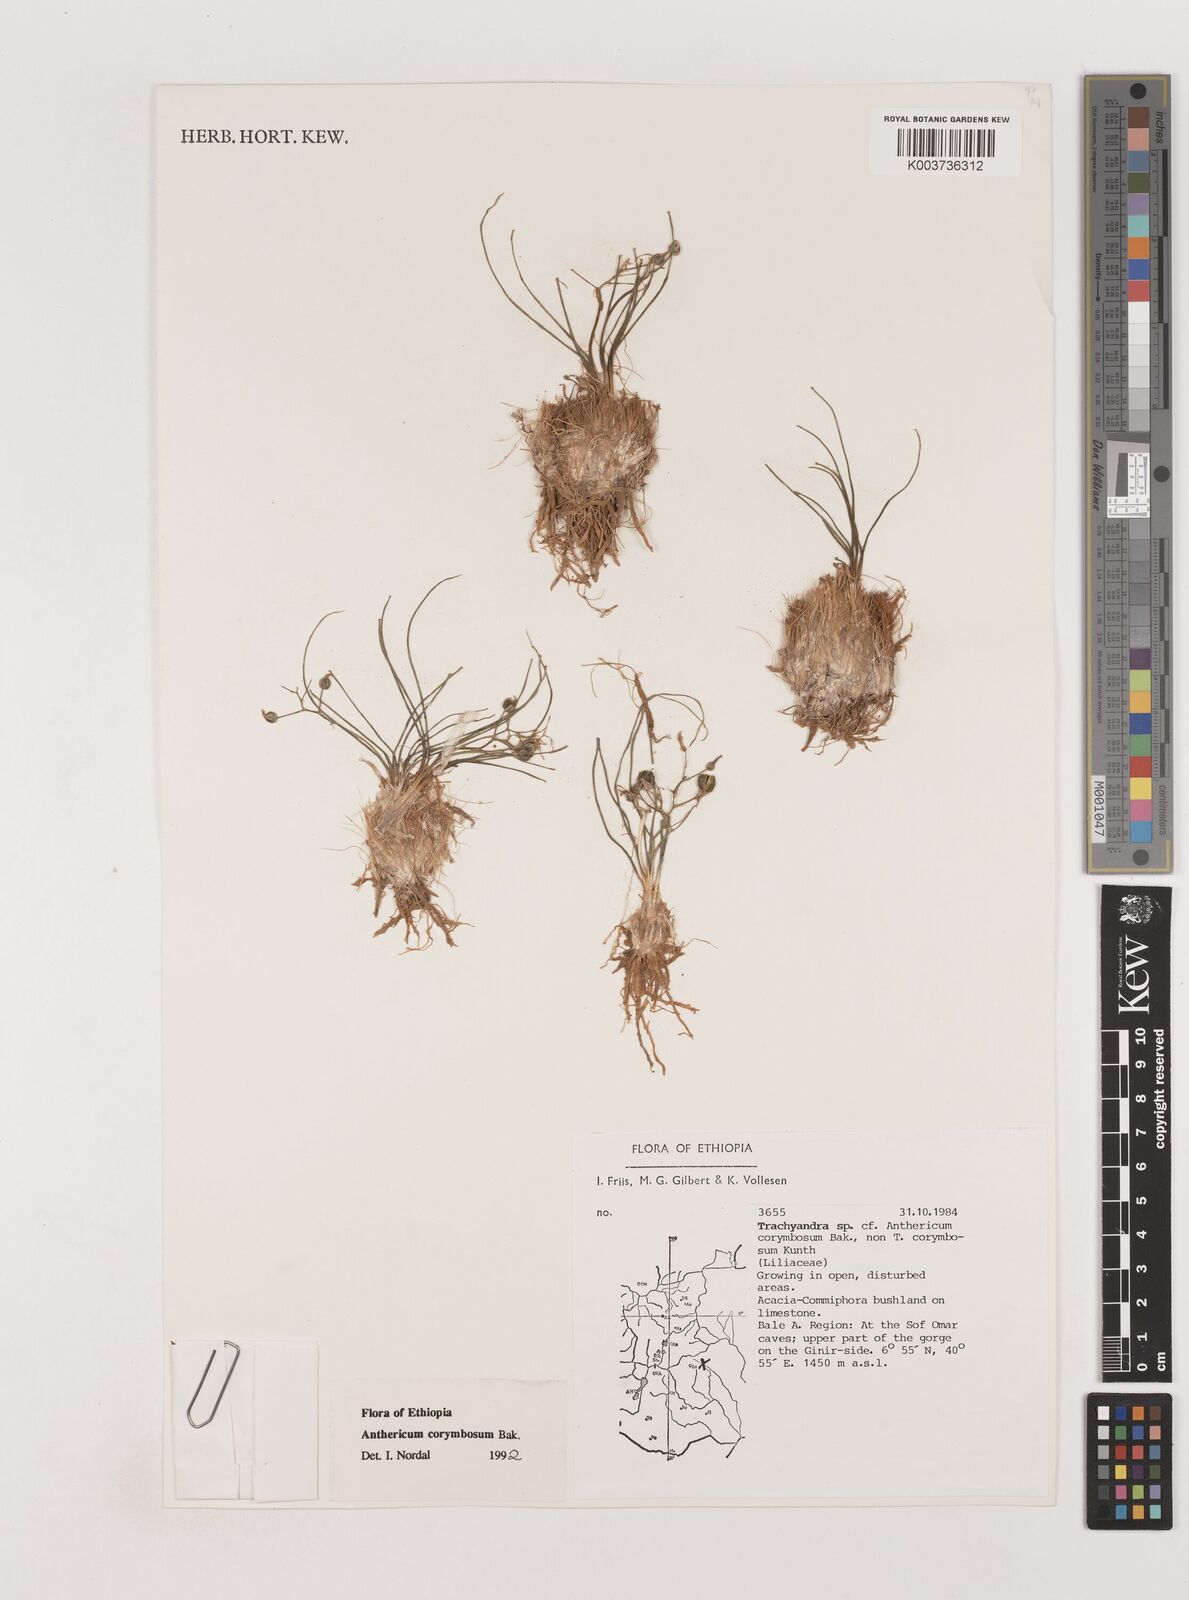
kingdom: Plantae
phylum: Tracheophyta
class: Liliopsida
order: Asparagales
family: Asparagaceae
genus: Anthericum
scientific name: Anthericum corymbosum
